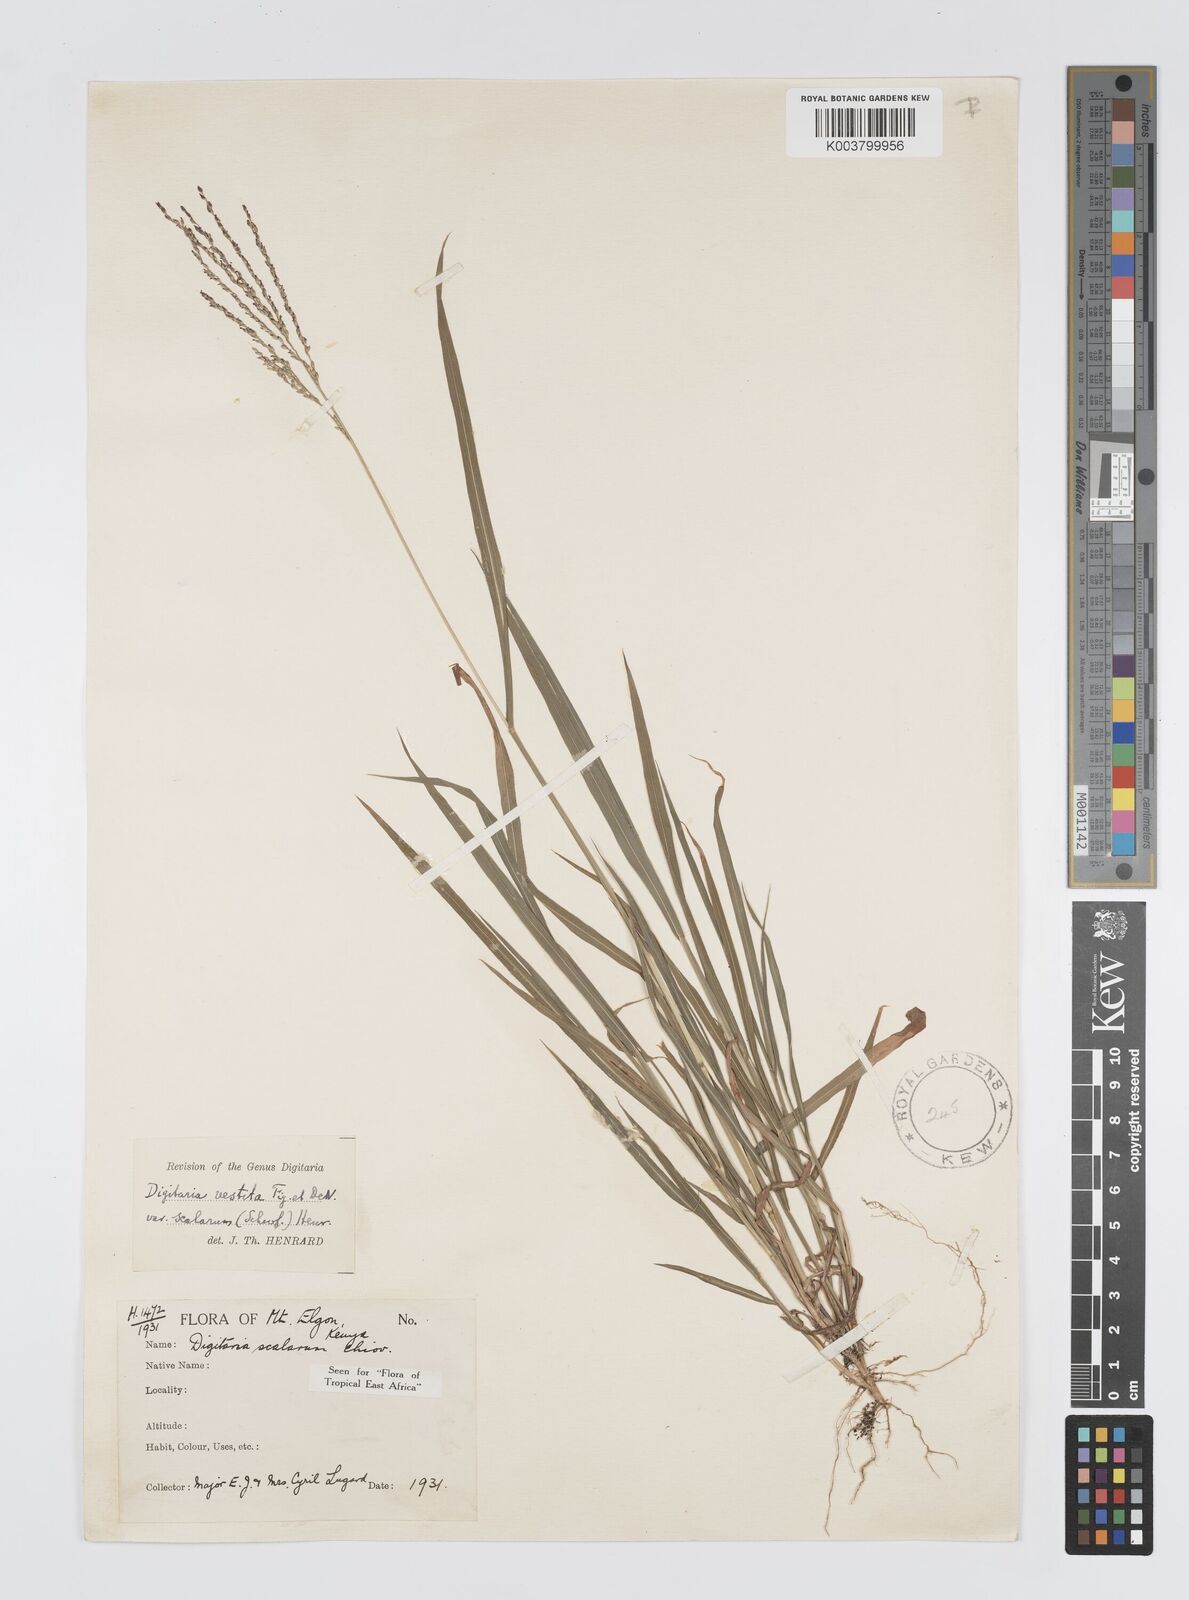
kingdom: Plantae
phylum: Tracheophyta
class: Liliopsida
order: Poales
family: Poaceae
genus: Digitaria
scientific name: Digitaria abyssinica
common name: African couchgrass
